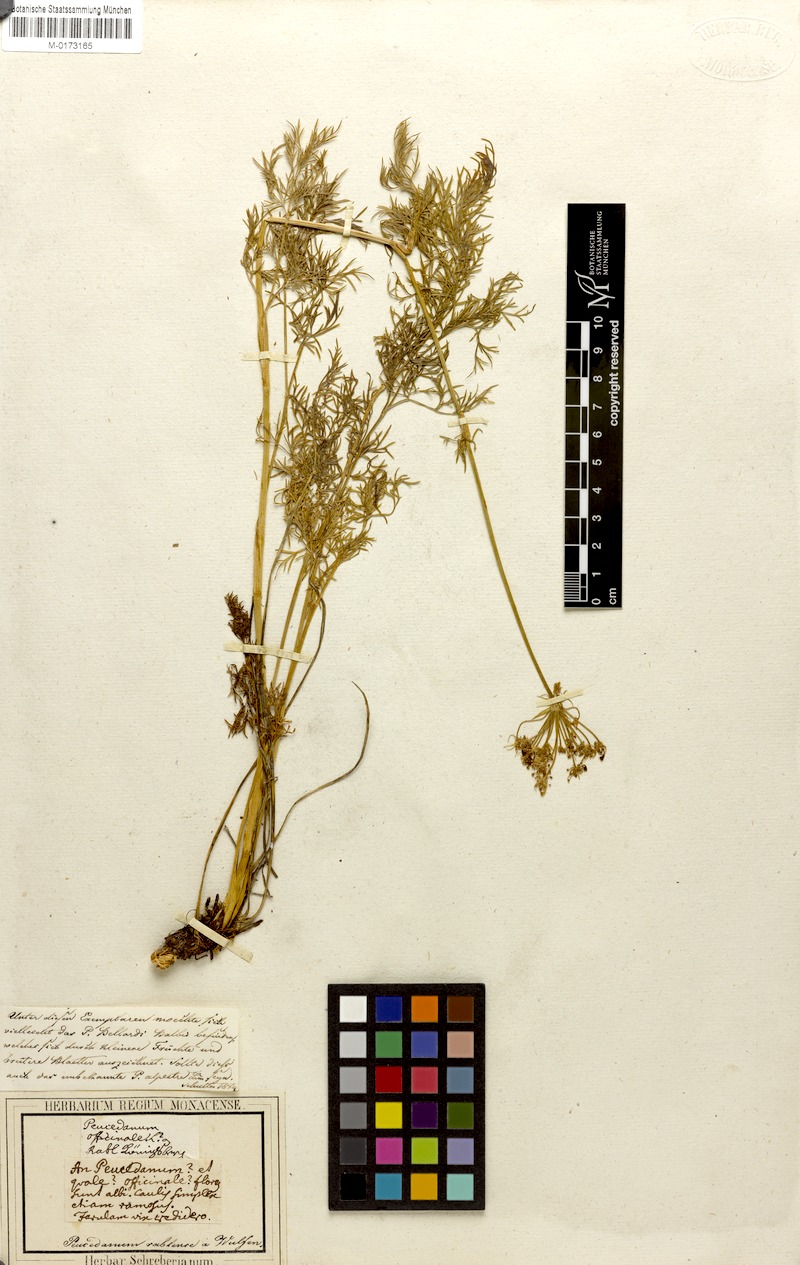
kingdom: Plantae
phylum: Tracheophyta
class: Magnoliopsida
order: Apiales
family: Apiaceae
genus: Peucedanum
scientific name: Peucedanum austriacum
